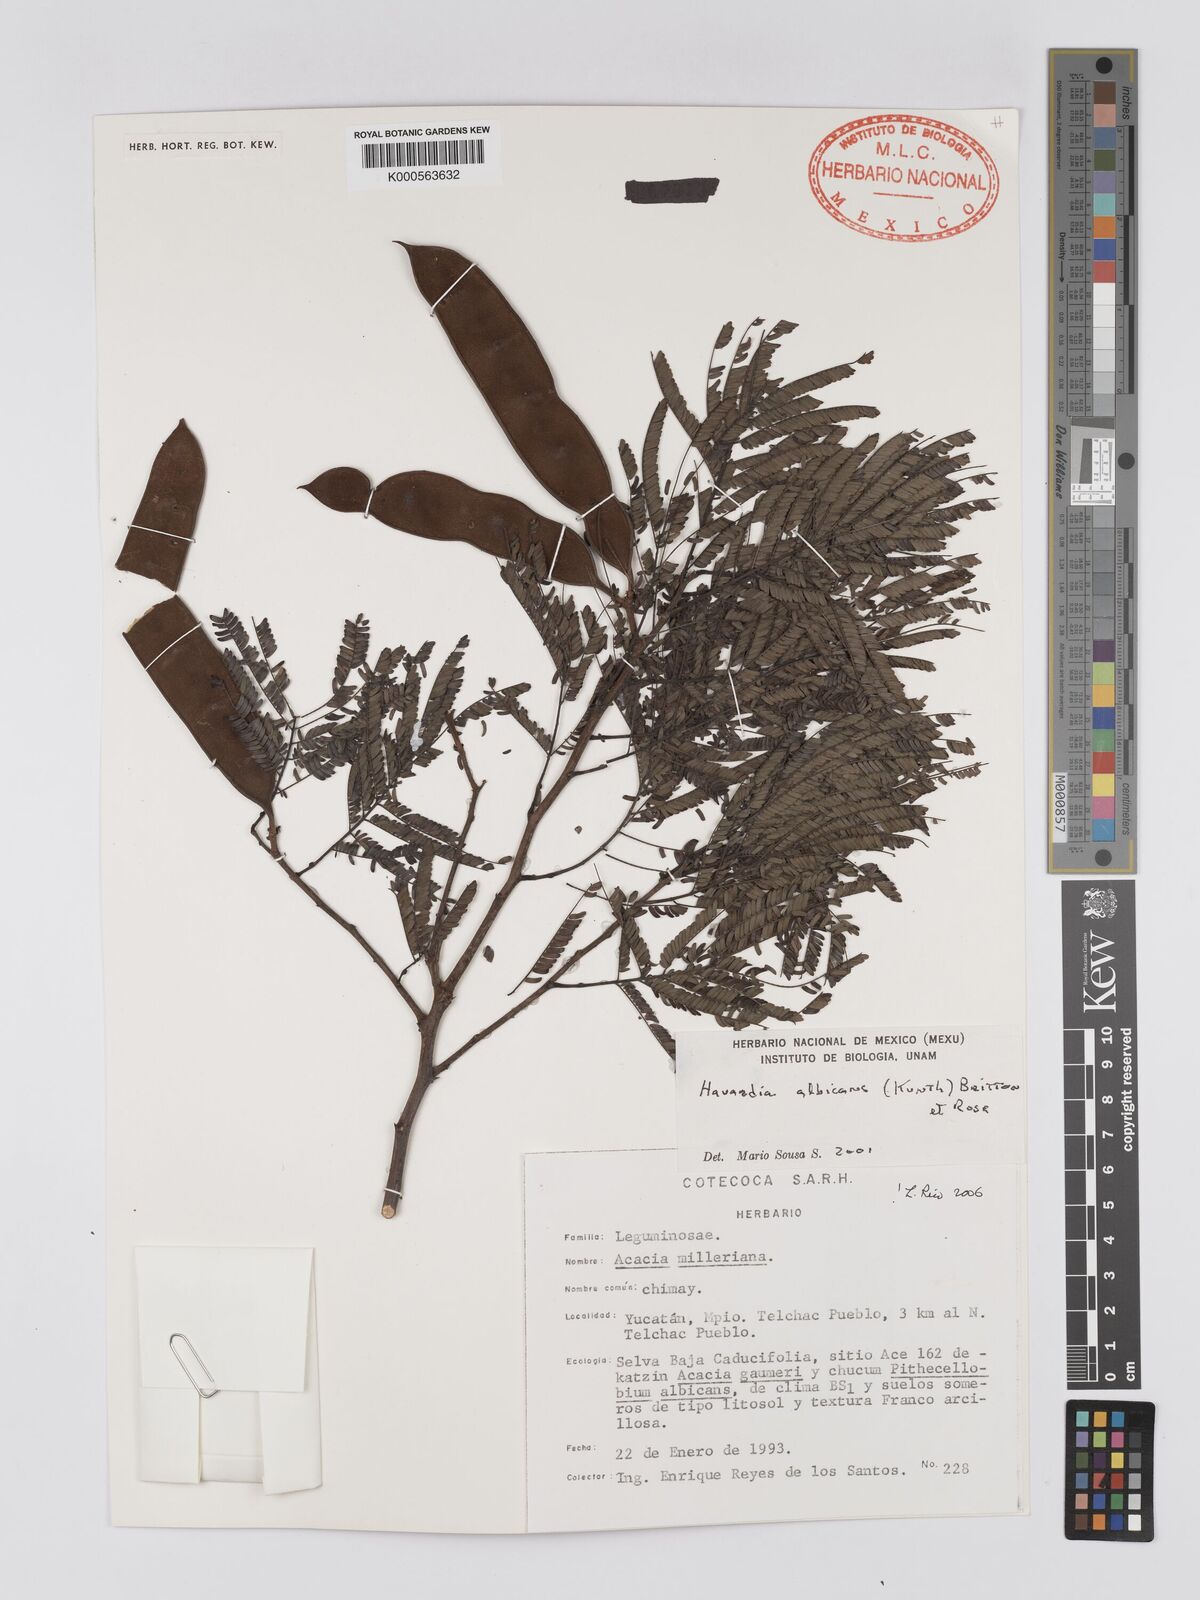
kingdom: Plantae
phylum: Tracheophyta
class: Magnoliopsida
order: Fabales
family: Fabaceae
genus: Havardia
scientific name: Havardia pallens
